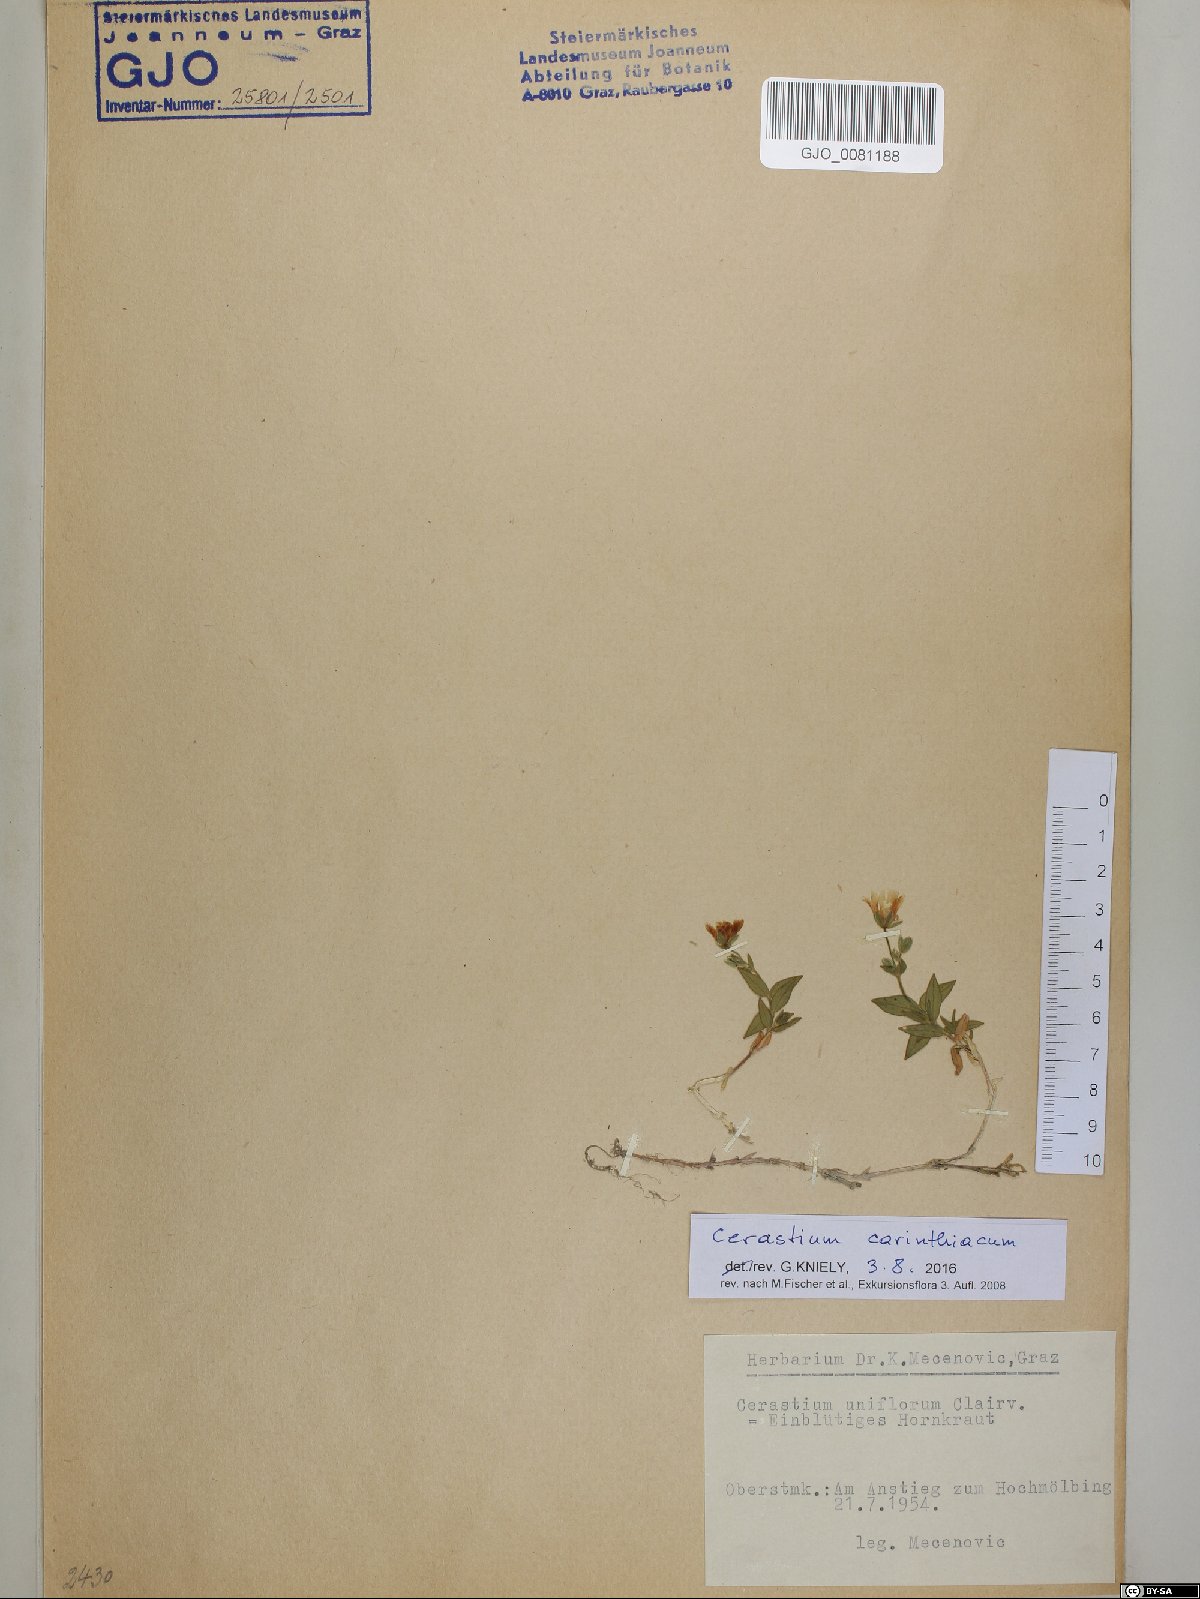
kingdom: Plantae
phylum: Tracheophyta
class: Magnoliopsida
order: Caryophyllales
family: Caryophyllaceae
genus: Cerastium
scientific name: Cerastium carinthiacum
